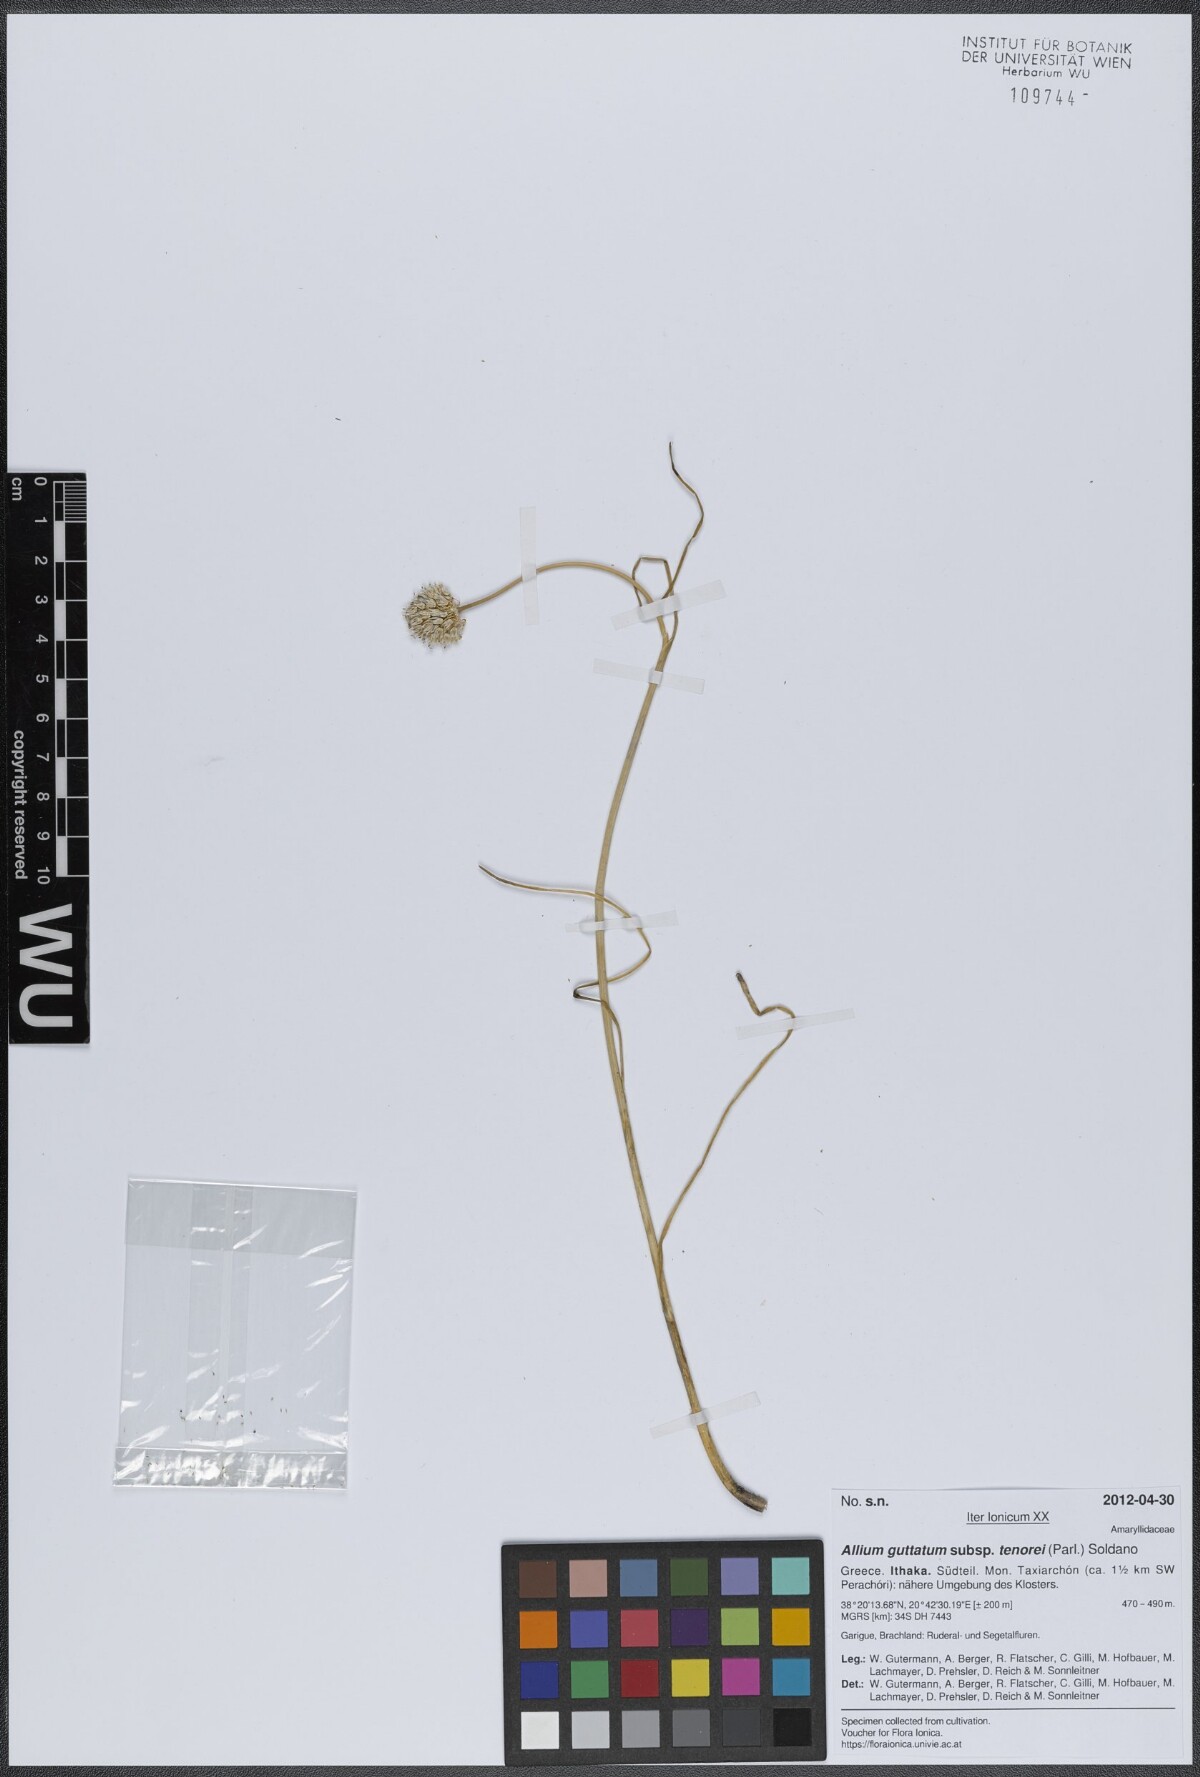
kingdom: Plantae
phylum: Tracheophyta
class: Liliopsida
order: Asparagales
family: Amaryllidaceae
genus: Allium
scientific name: Allium sardoum
